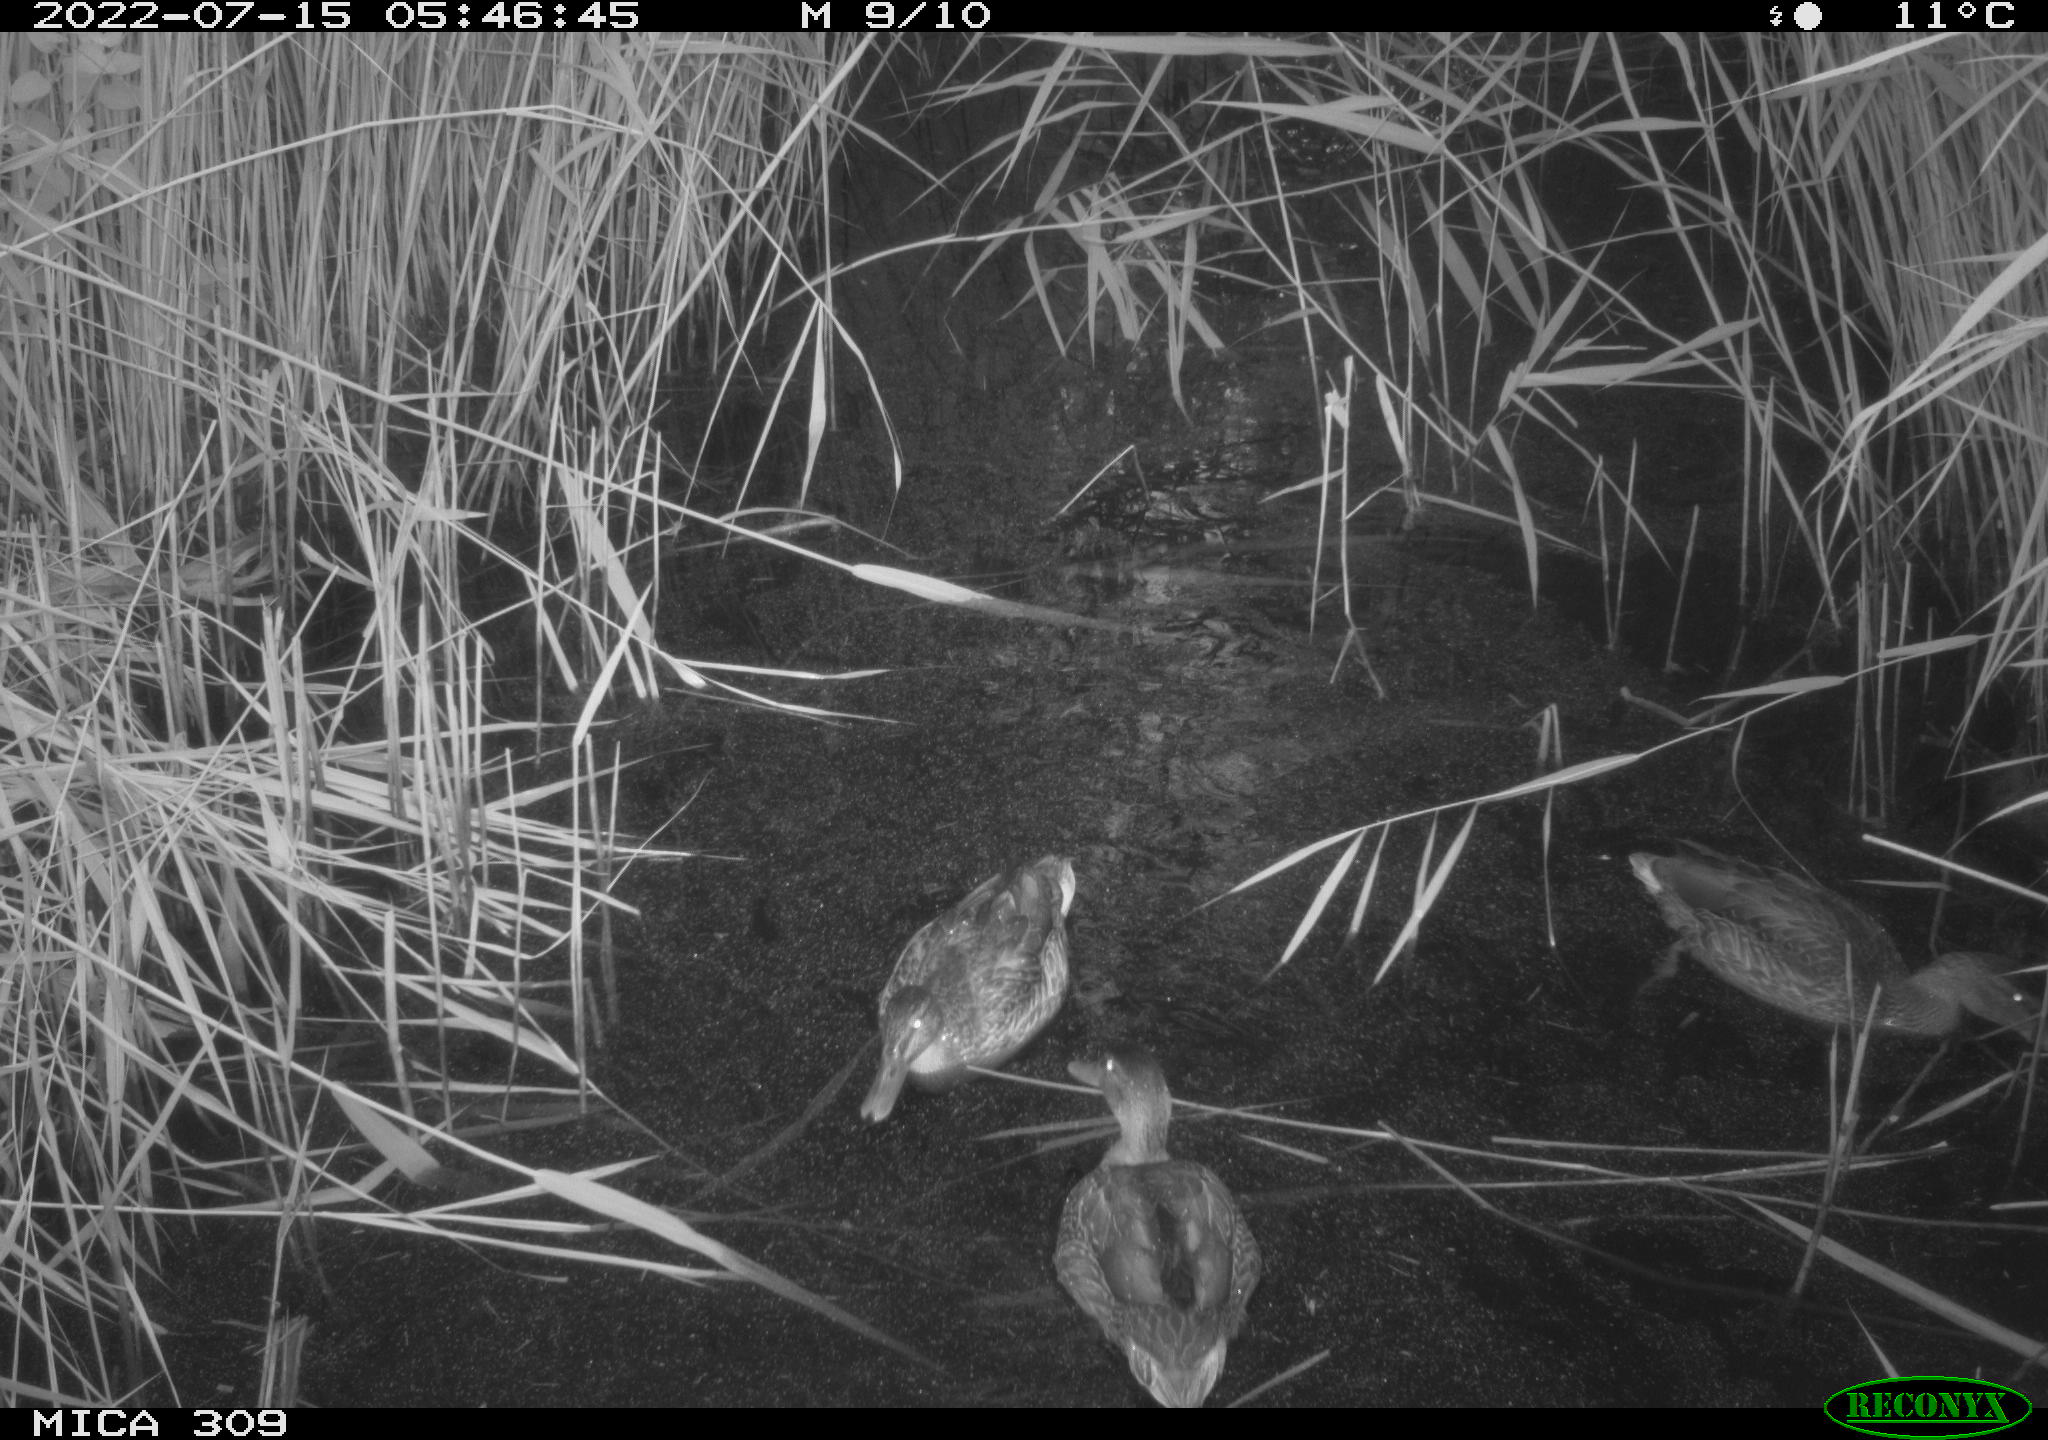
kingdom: Animalia
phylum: Chordata
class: Aves
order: Anseriformes
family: Anatidae
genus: Anas
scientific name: Anas platyrhynchos
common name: Mallard
